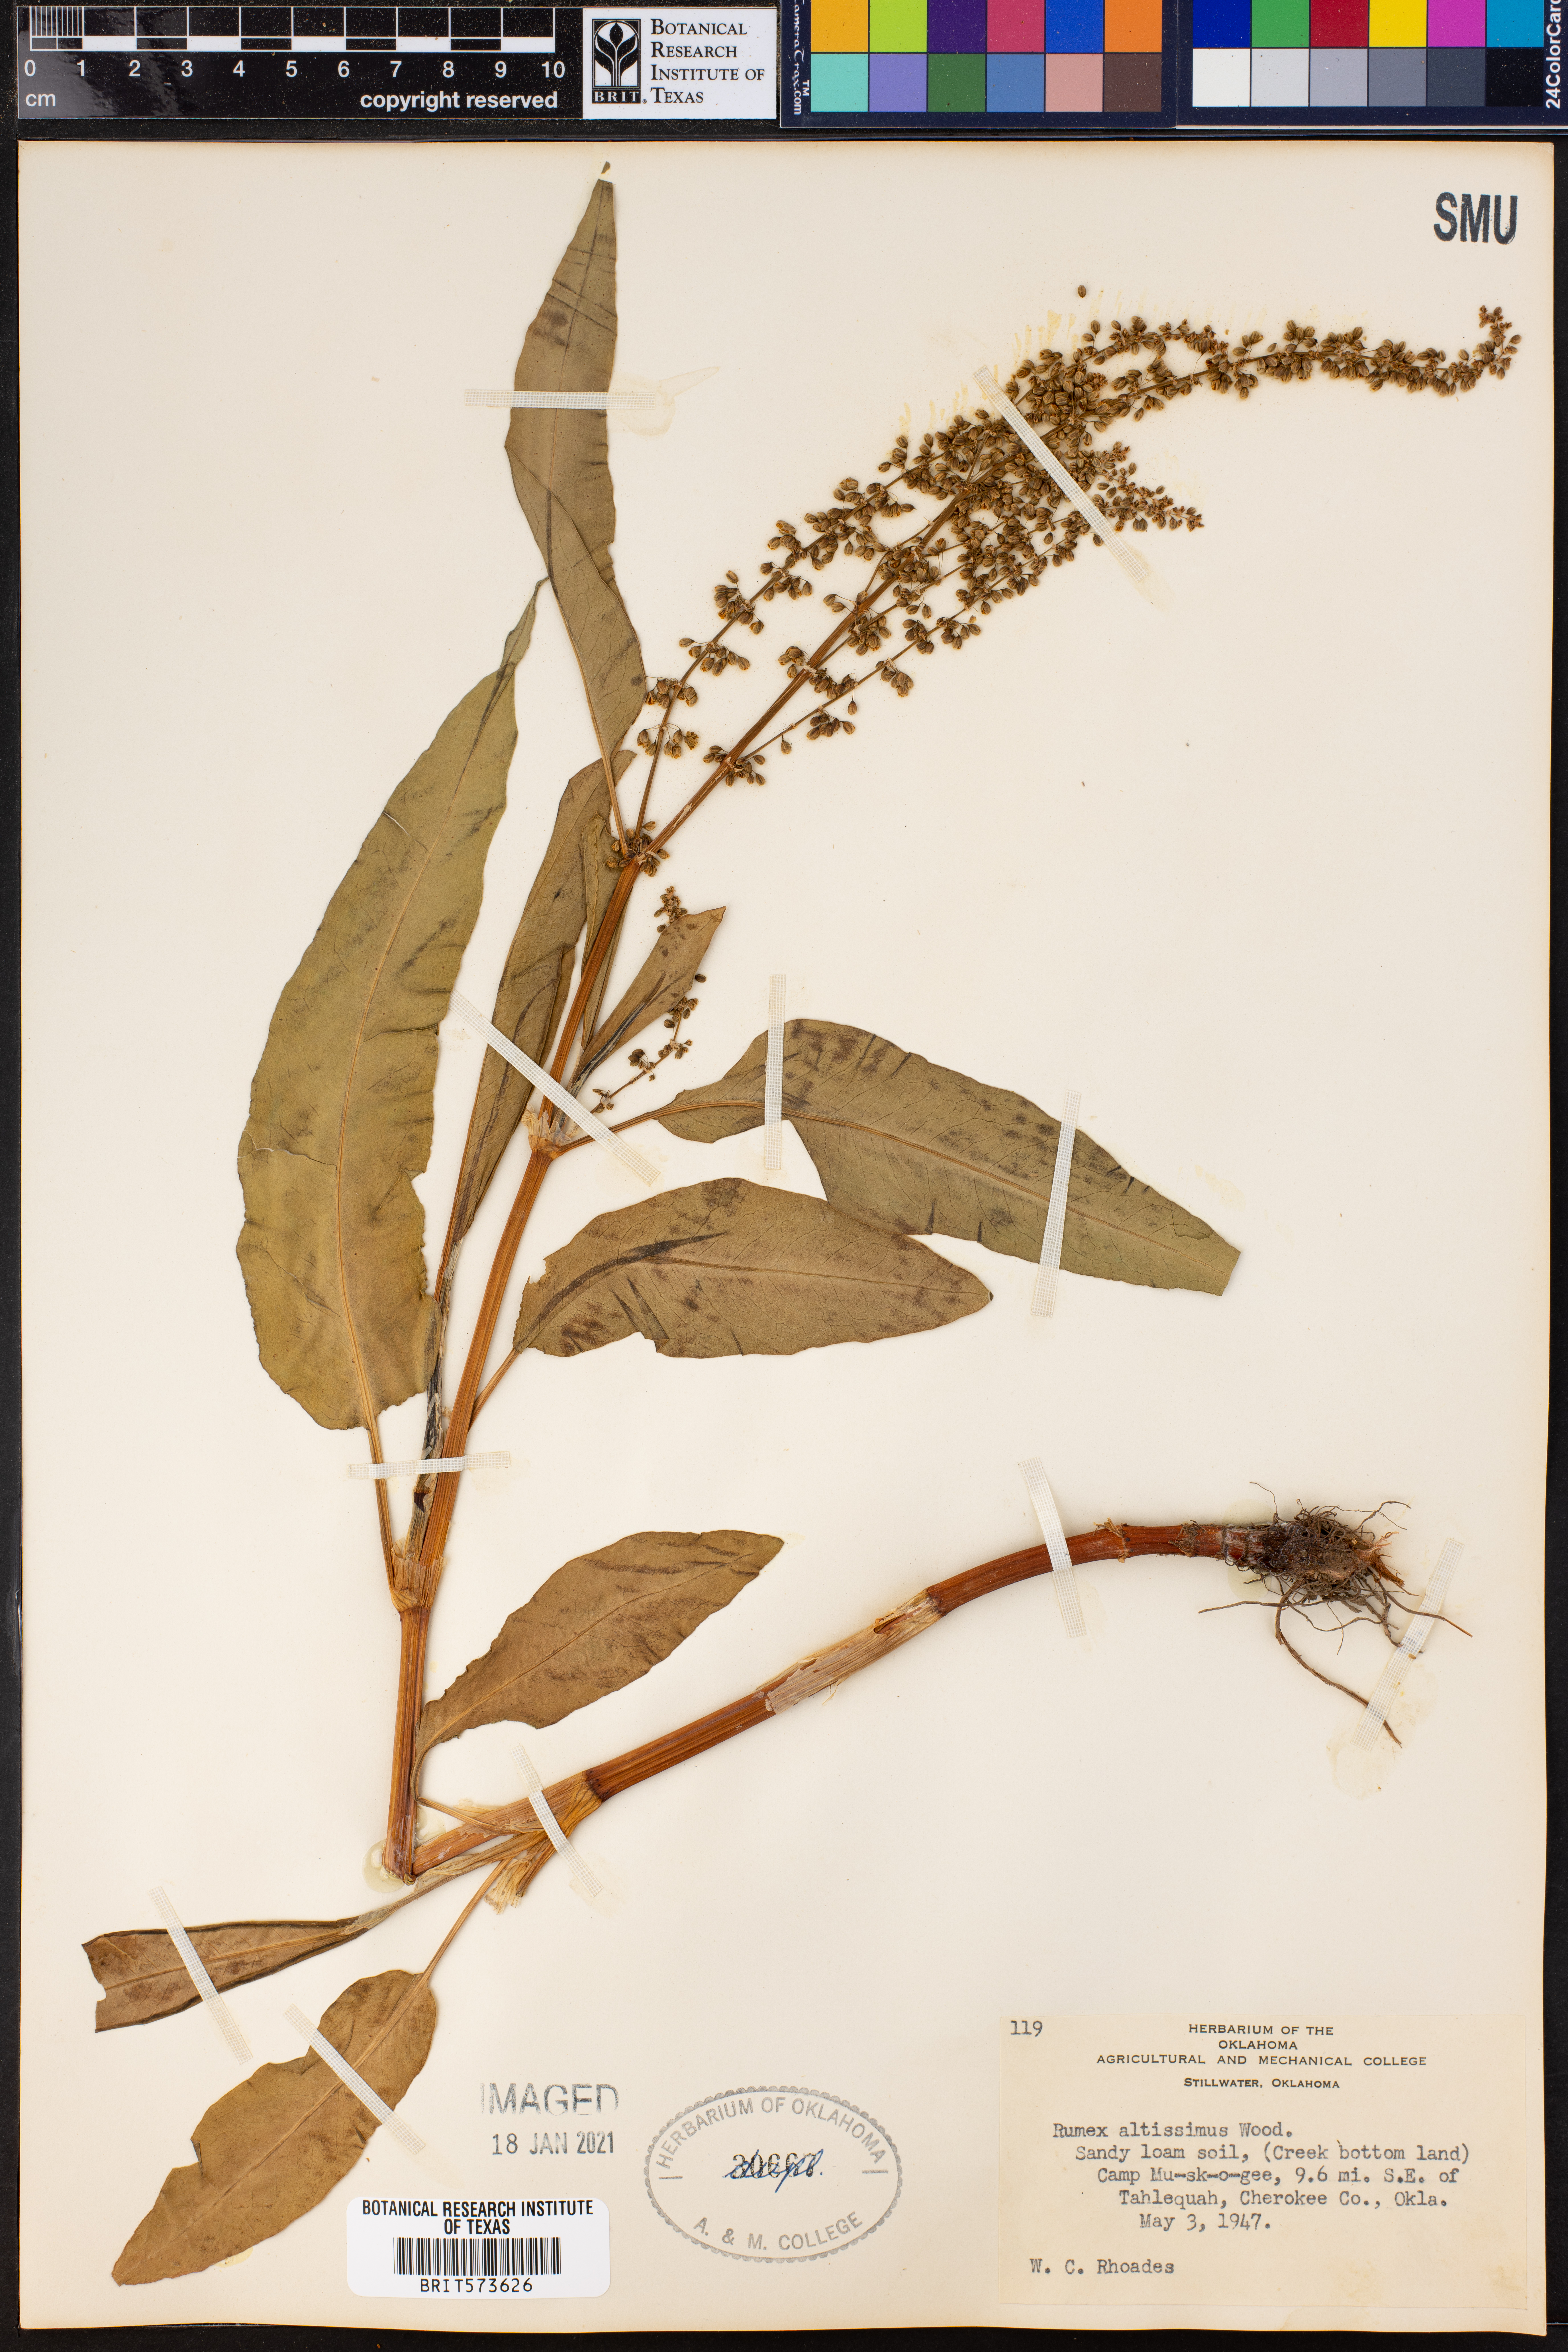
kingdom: Plantae
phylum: Tracheophyta
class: Magnoliopsida
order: Caryophyllales
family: Polygonaceae
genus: Rumex
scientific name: Rumex altissimus
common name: Smooth dock
